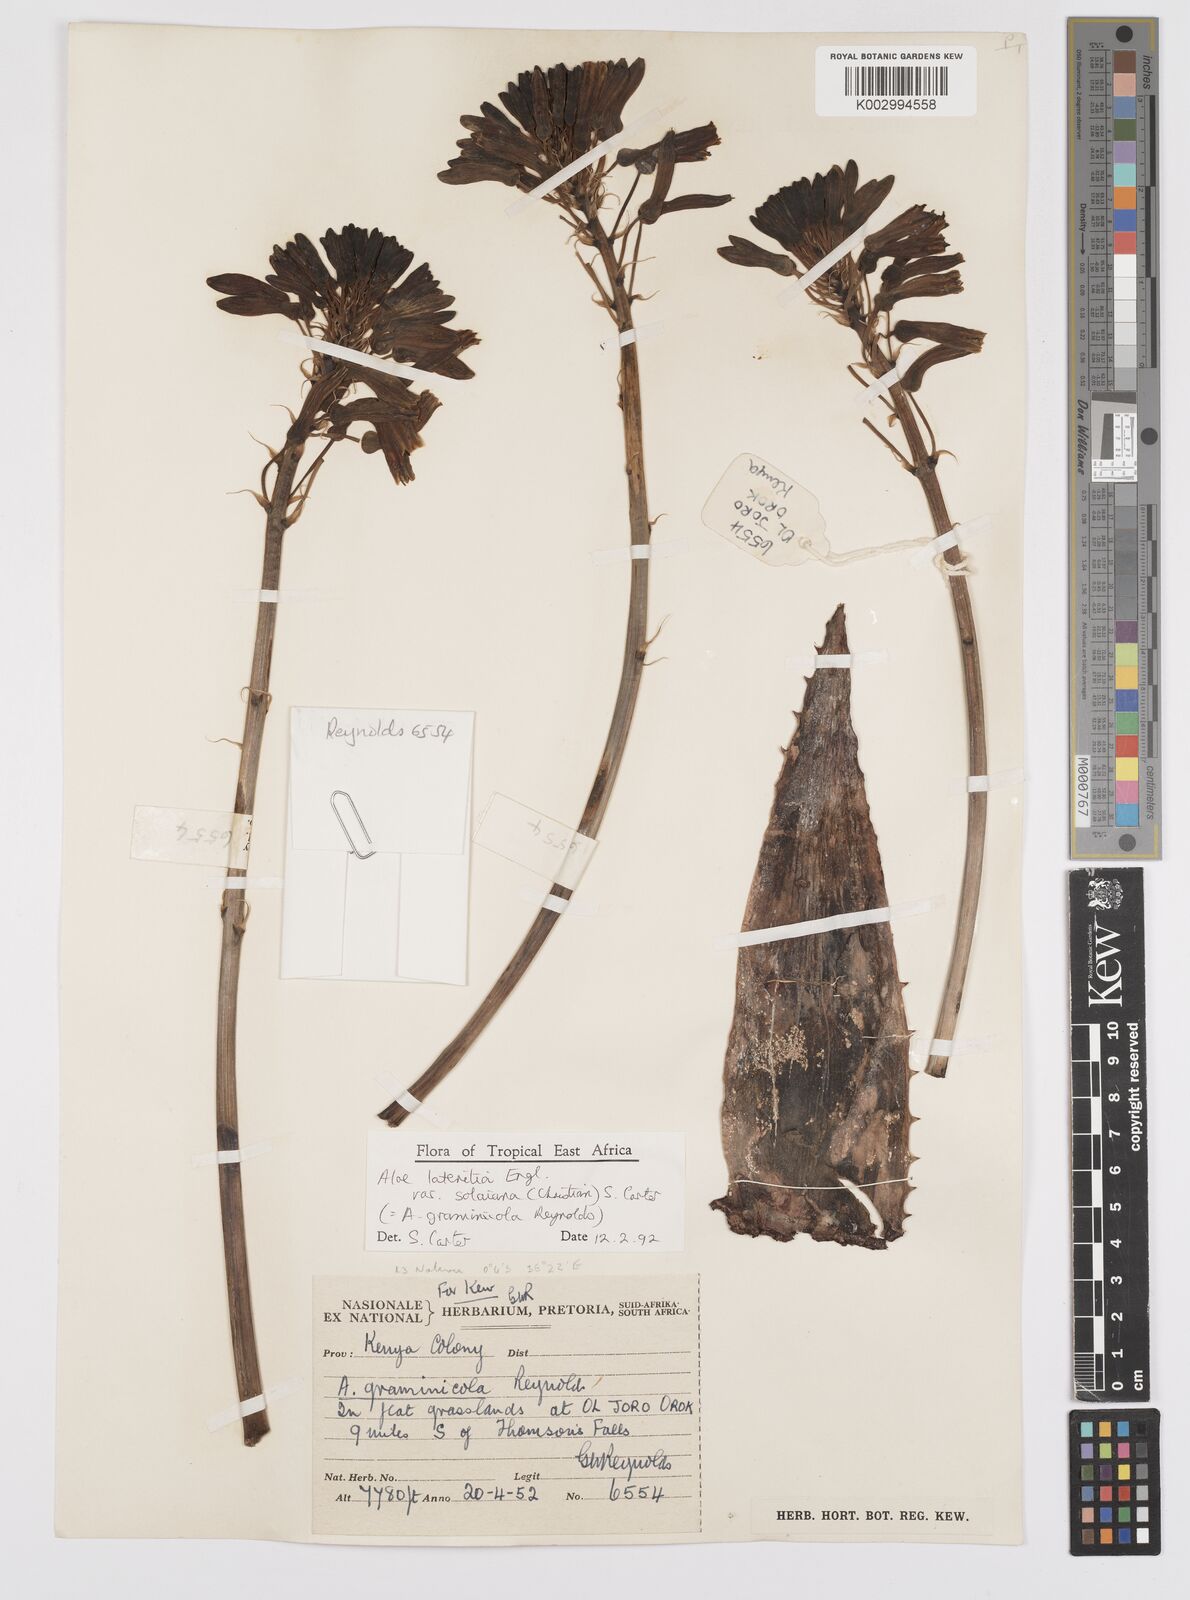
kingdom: Plantae
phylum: Tracheophyta
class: Liliopsida
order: Asparagales
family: Asphodelaceae
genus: Aloe
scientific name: Aloe lateritia
